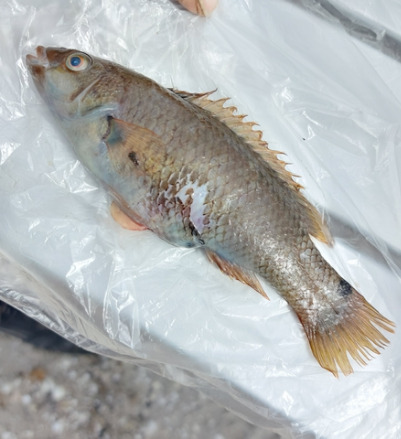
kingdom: Animalia
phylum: Chordata
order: Perciformes
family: Labridae
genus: Ctenolabrus
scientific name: Ctenolabrus rupestris
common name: Havkarusse
